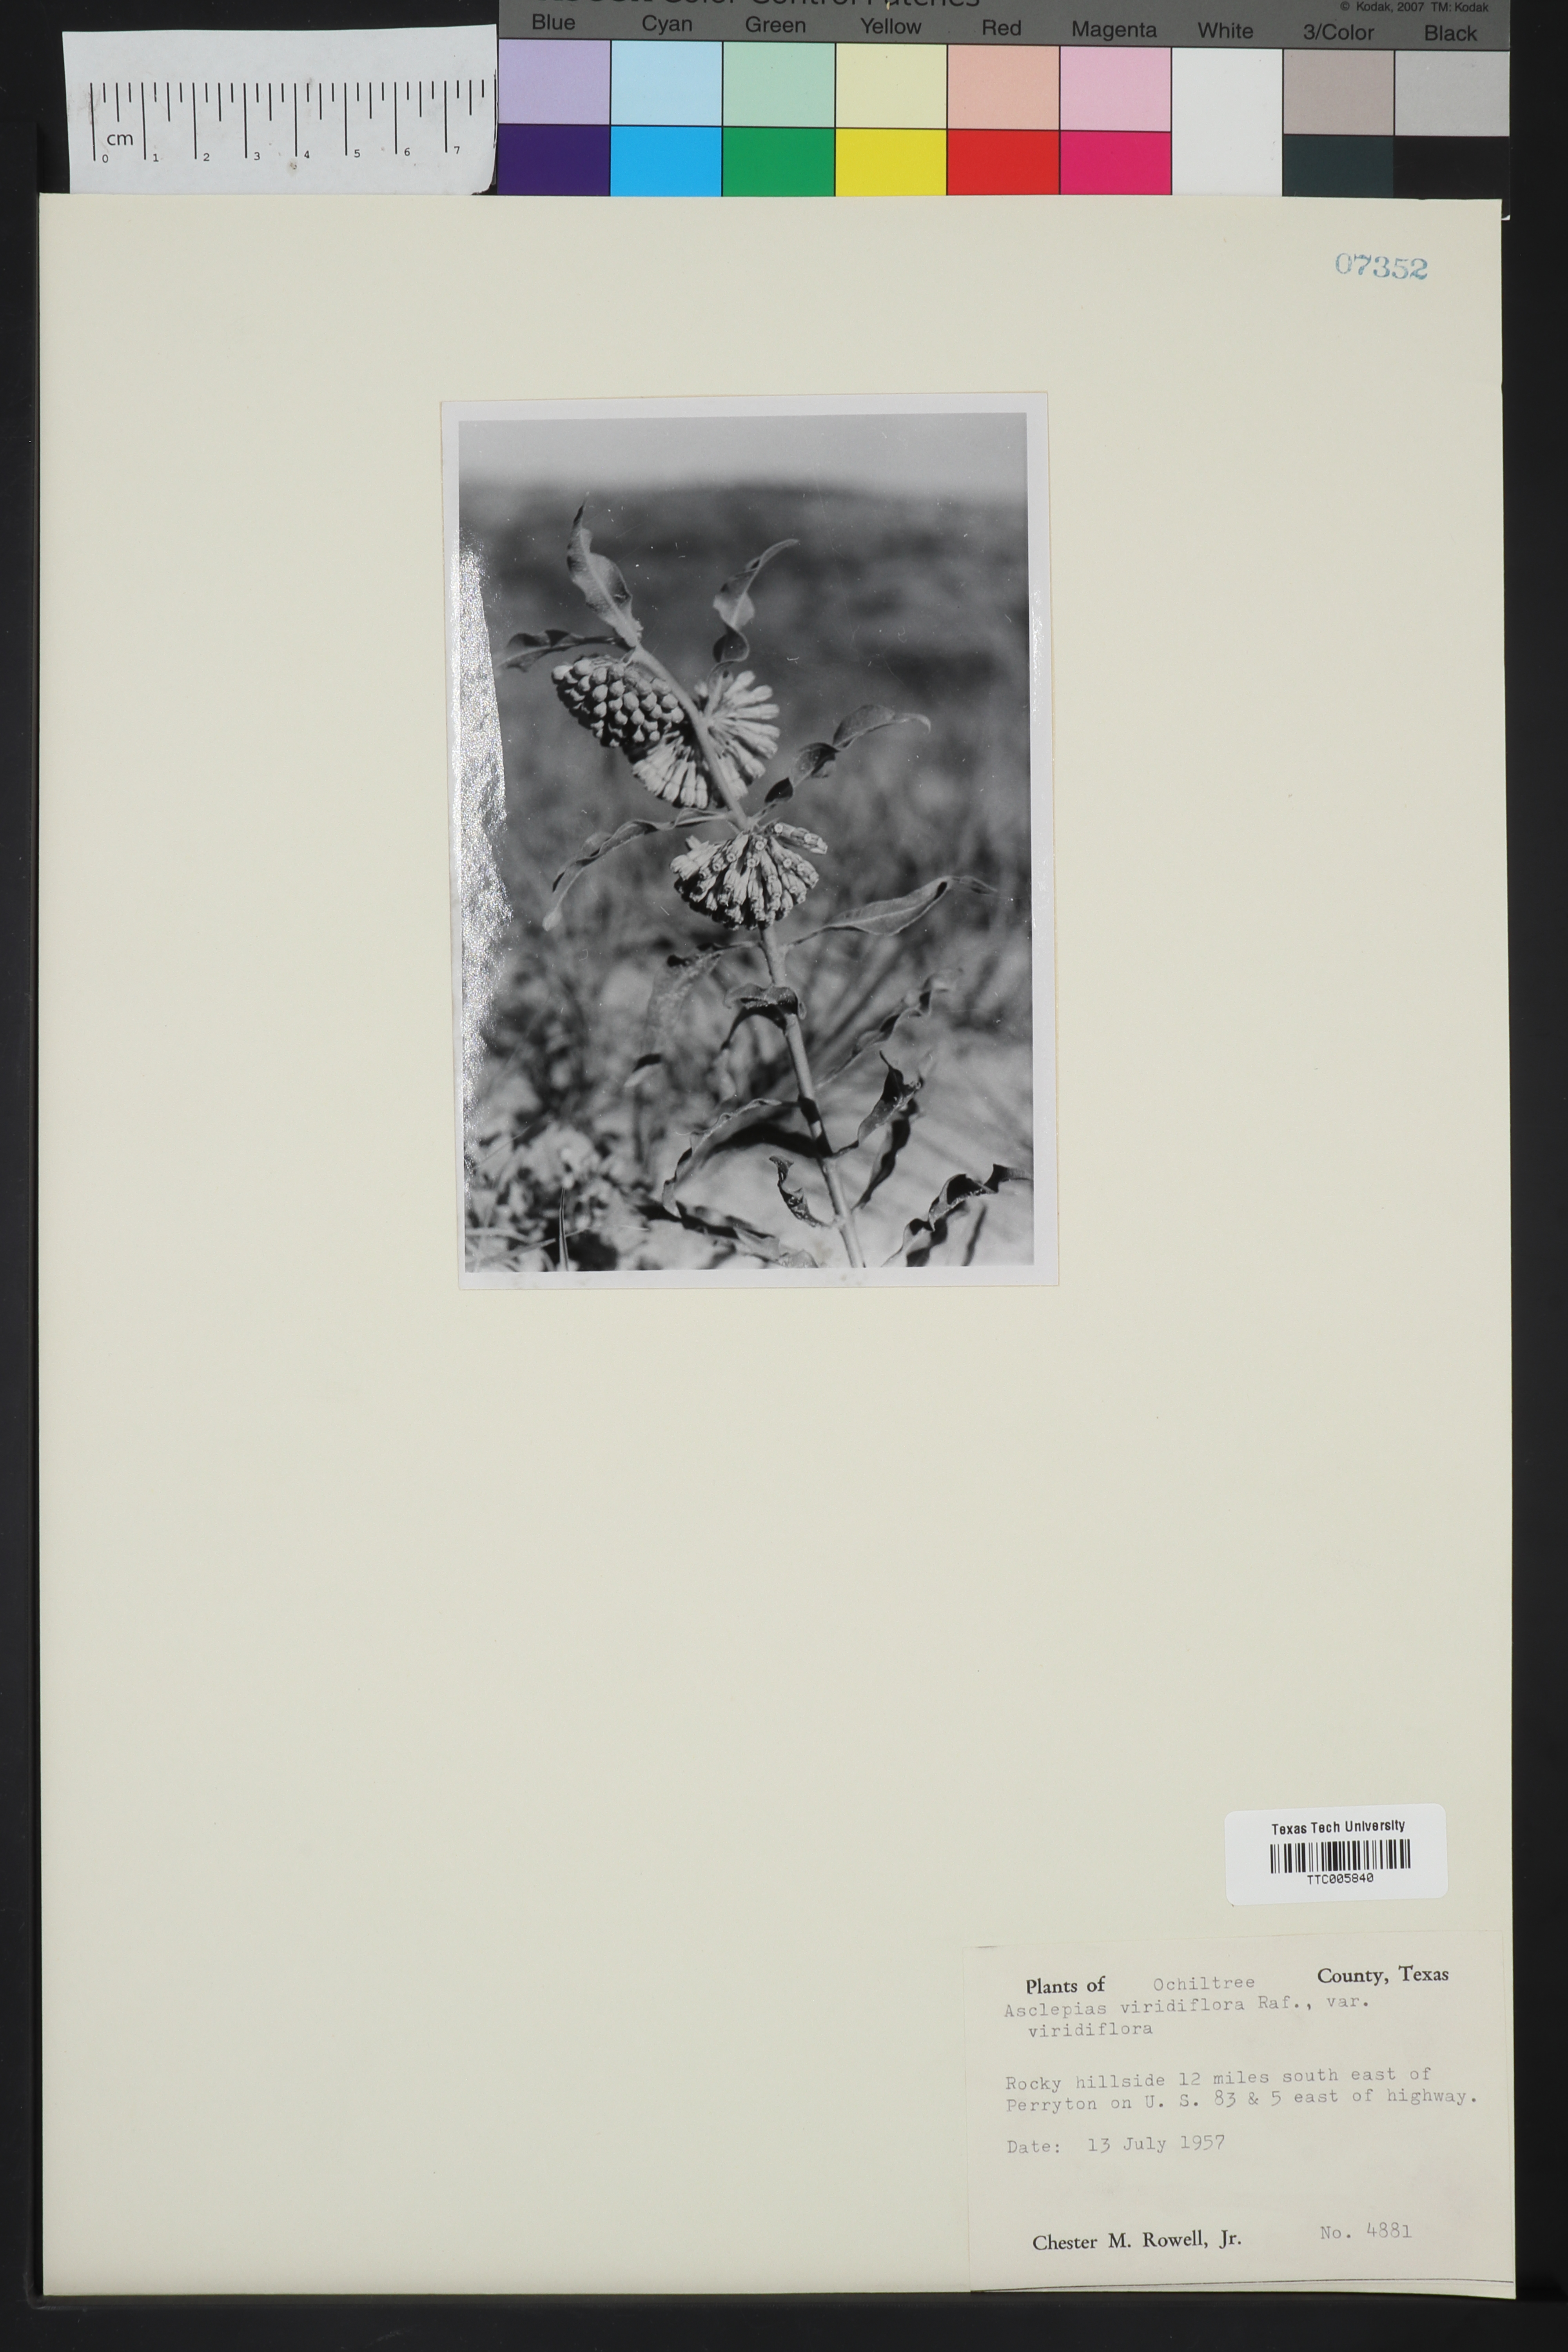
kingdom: Plantae
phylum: Tracheophyta
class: Magnoliopsida
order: Gentianales
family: Apocynaceae
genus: Asclepias
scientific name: Asclepias viridiflora
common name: Green comet milkweed
